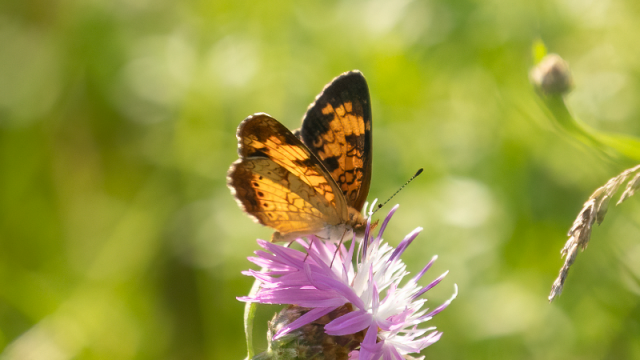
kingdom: Animalia
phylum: Arthropoda
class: Insecta
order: Lepidoptera
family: Nymphalidae
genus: Phyciodes
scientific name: Phyciodes tharos
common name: Northern Crescent
